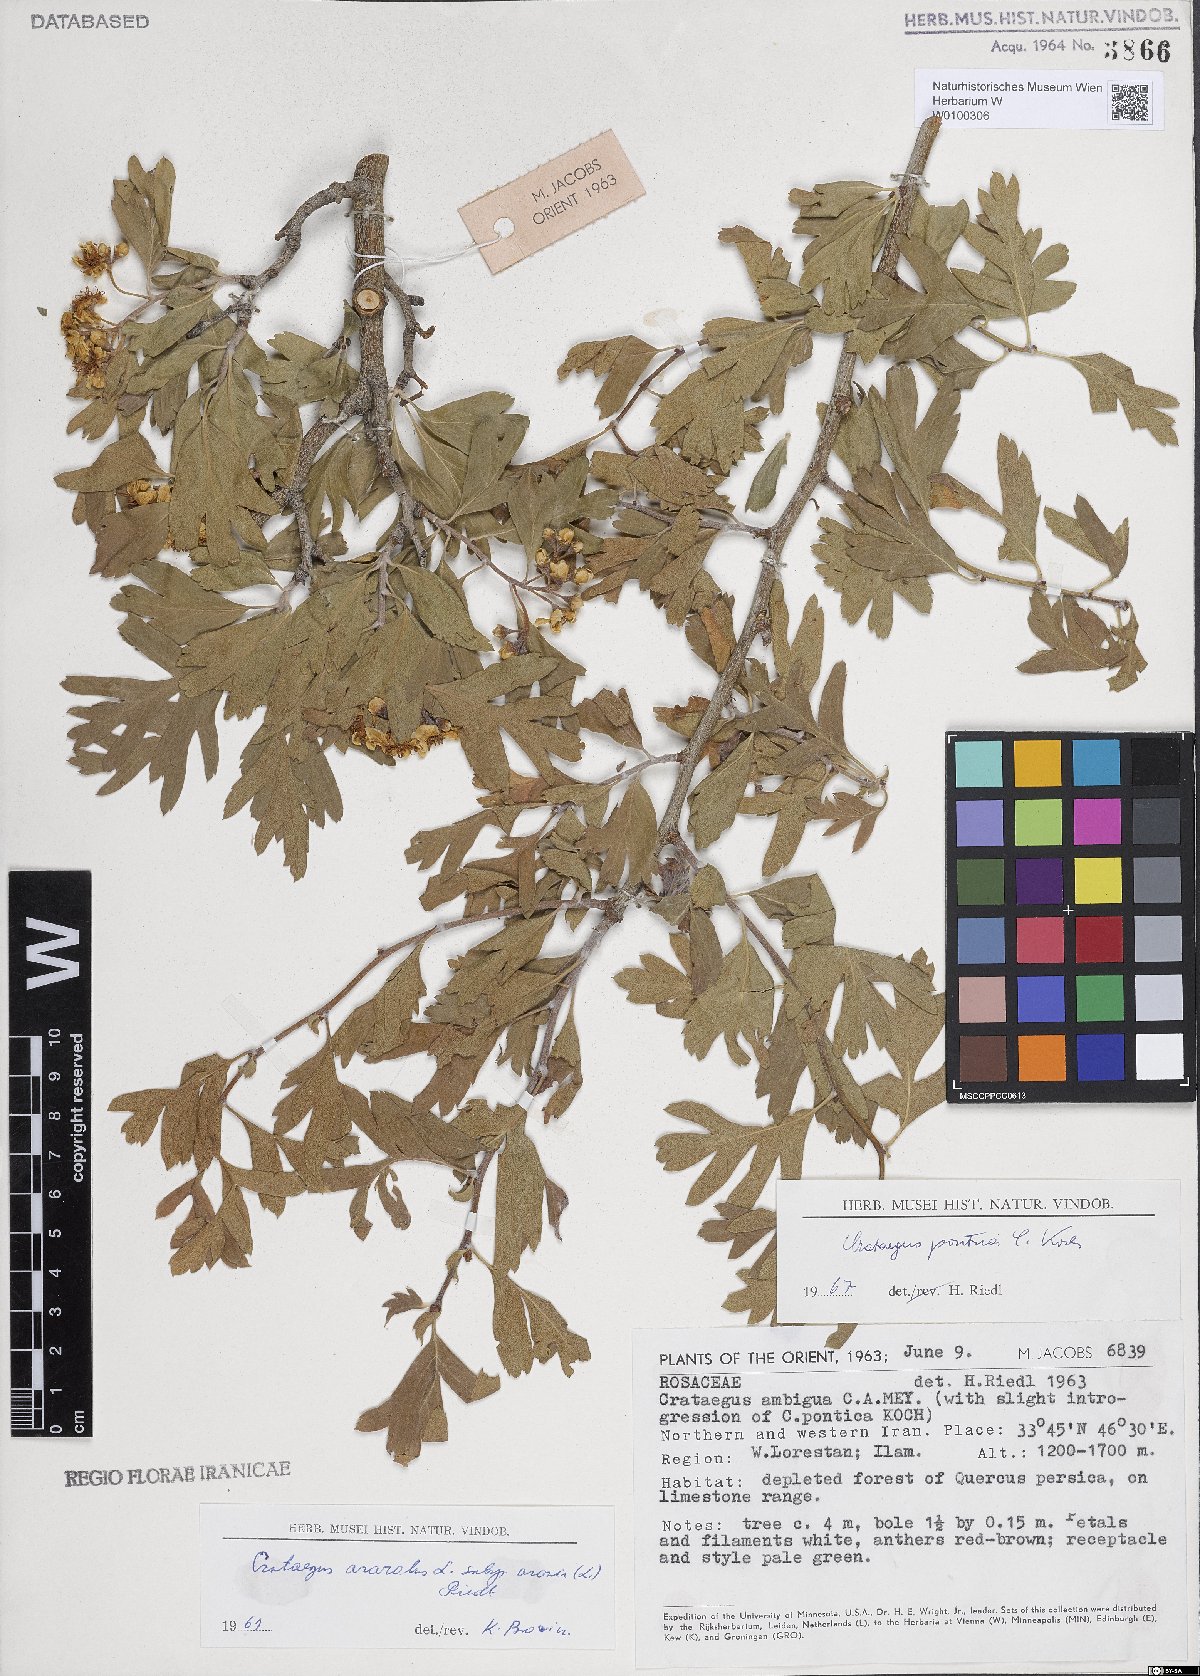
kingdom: Plantae
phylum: Tracheophyta
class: Magnoliopsida
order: Rosales
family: Rosaceae
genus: Crataegus
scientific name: Crataegus azarolus
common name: Azarole
